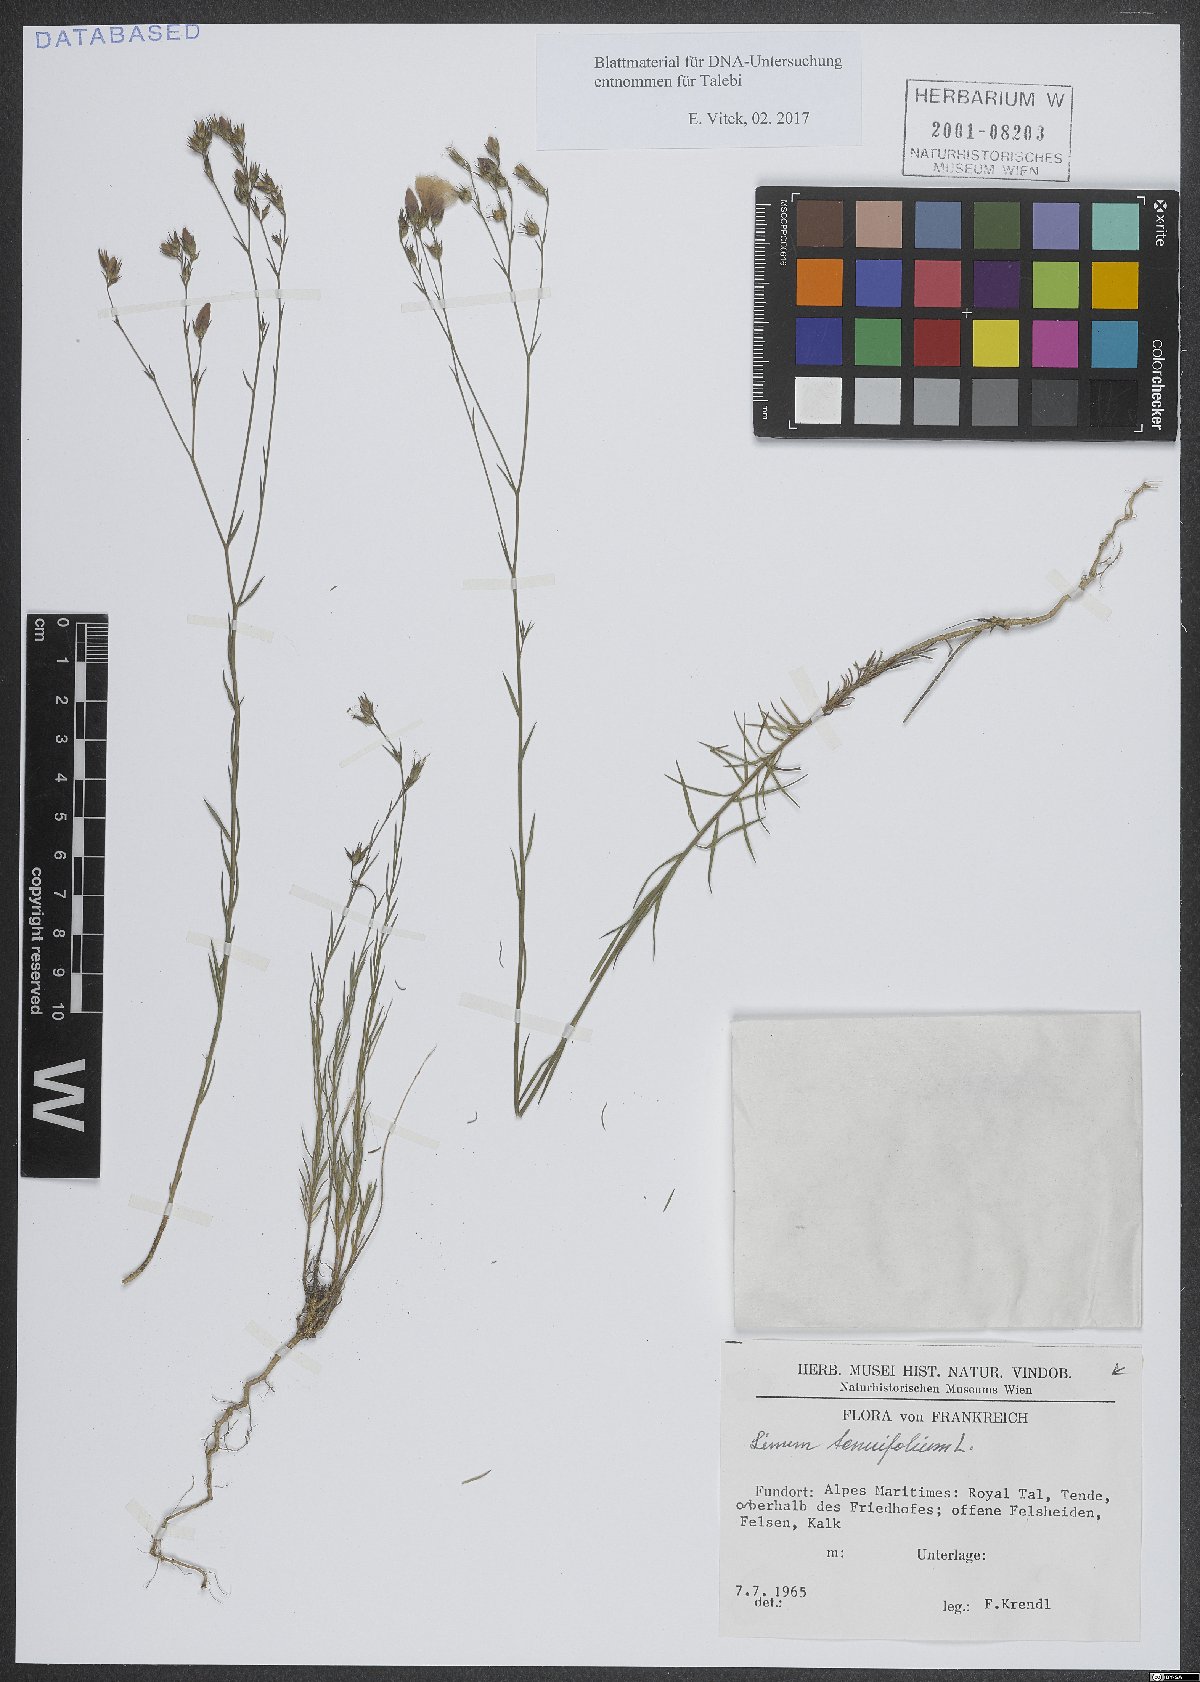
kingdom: Plantae
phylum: Tracheophyta
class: Magnoliopsida
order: Malpighiales
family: Linaceae
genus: Linum
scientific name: Linum tenuifolium
